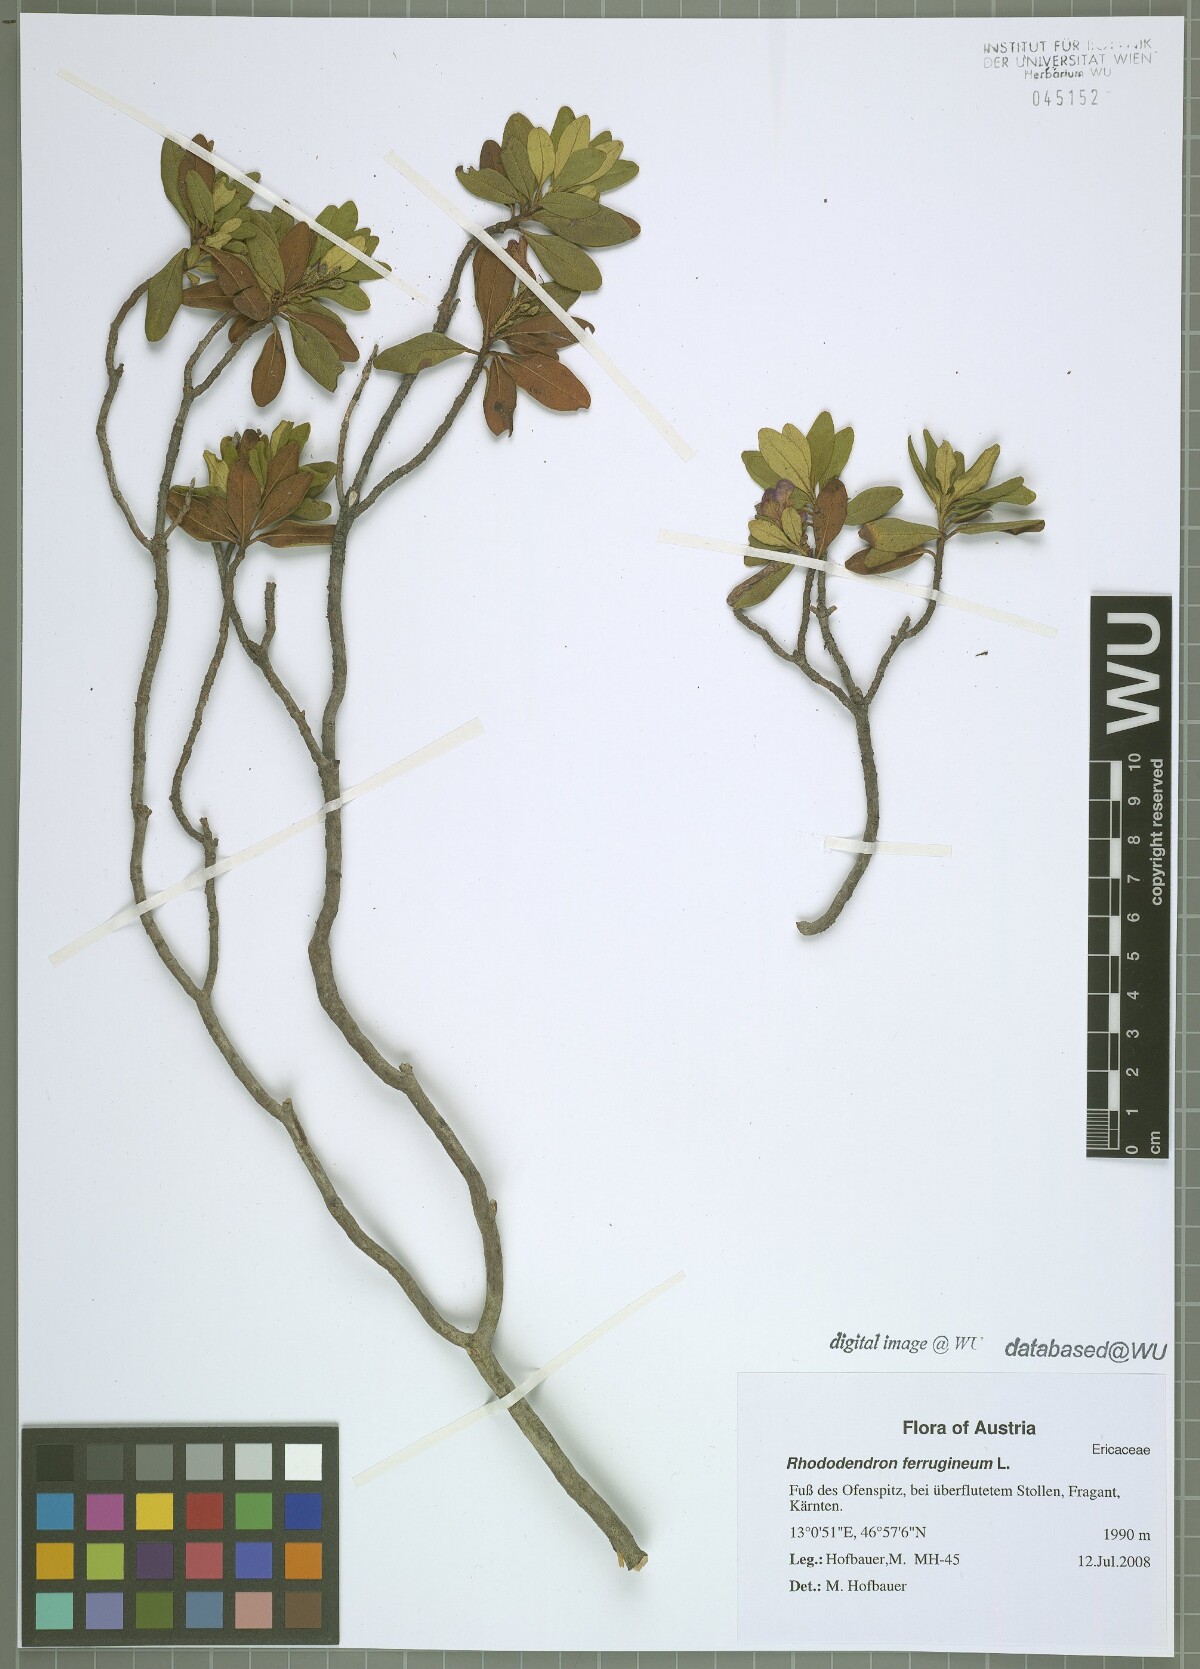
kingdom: Plantae
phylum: Tracheophyta
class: Magnoliopsida
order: Ericales
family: Ericaceae
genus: Rhododendron
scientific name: Rhododendron ferrugineum
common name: Alpenrose
